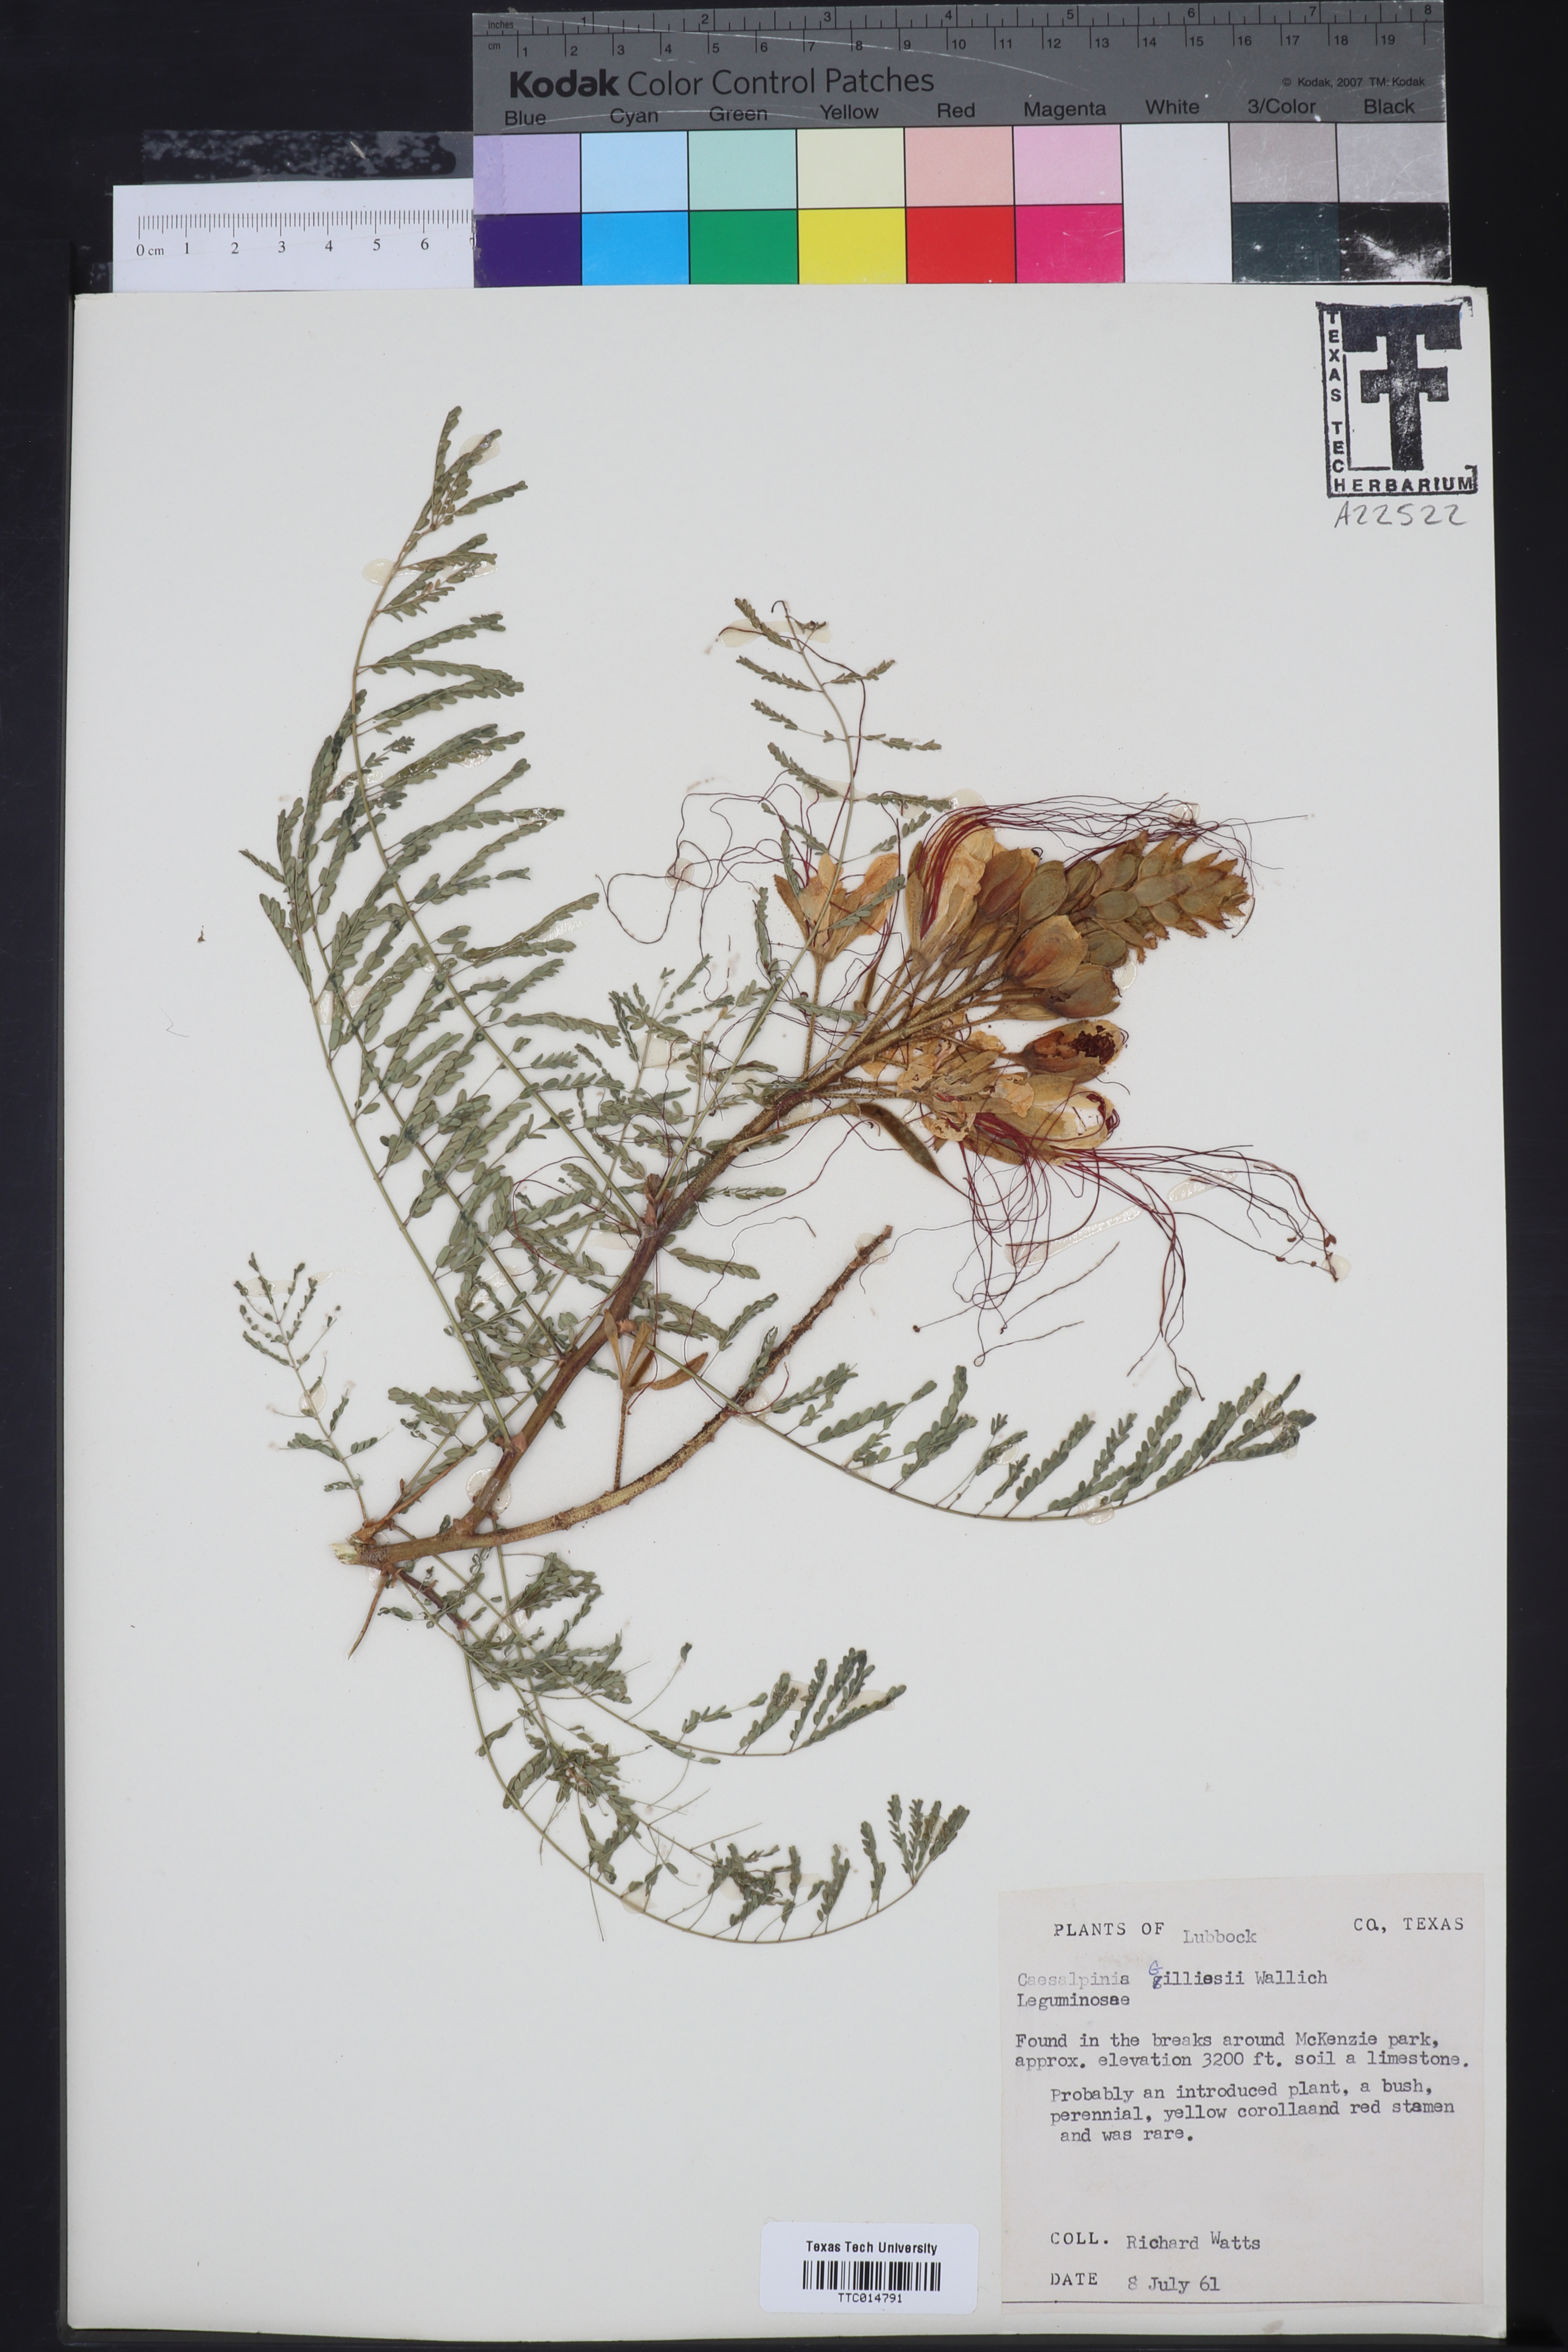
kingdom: Plantae
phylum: Tracheophyta
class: Magnoliopsida
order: Fabales
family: Fabaceae
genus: Erythrostemon
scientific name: Erythrostemon gilliesii
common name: Bird-of-paradise shrub
